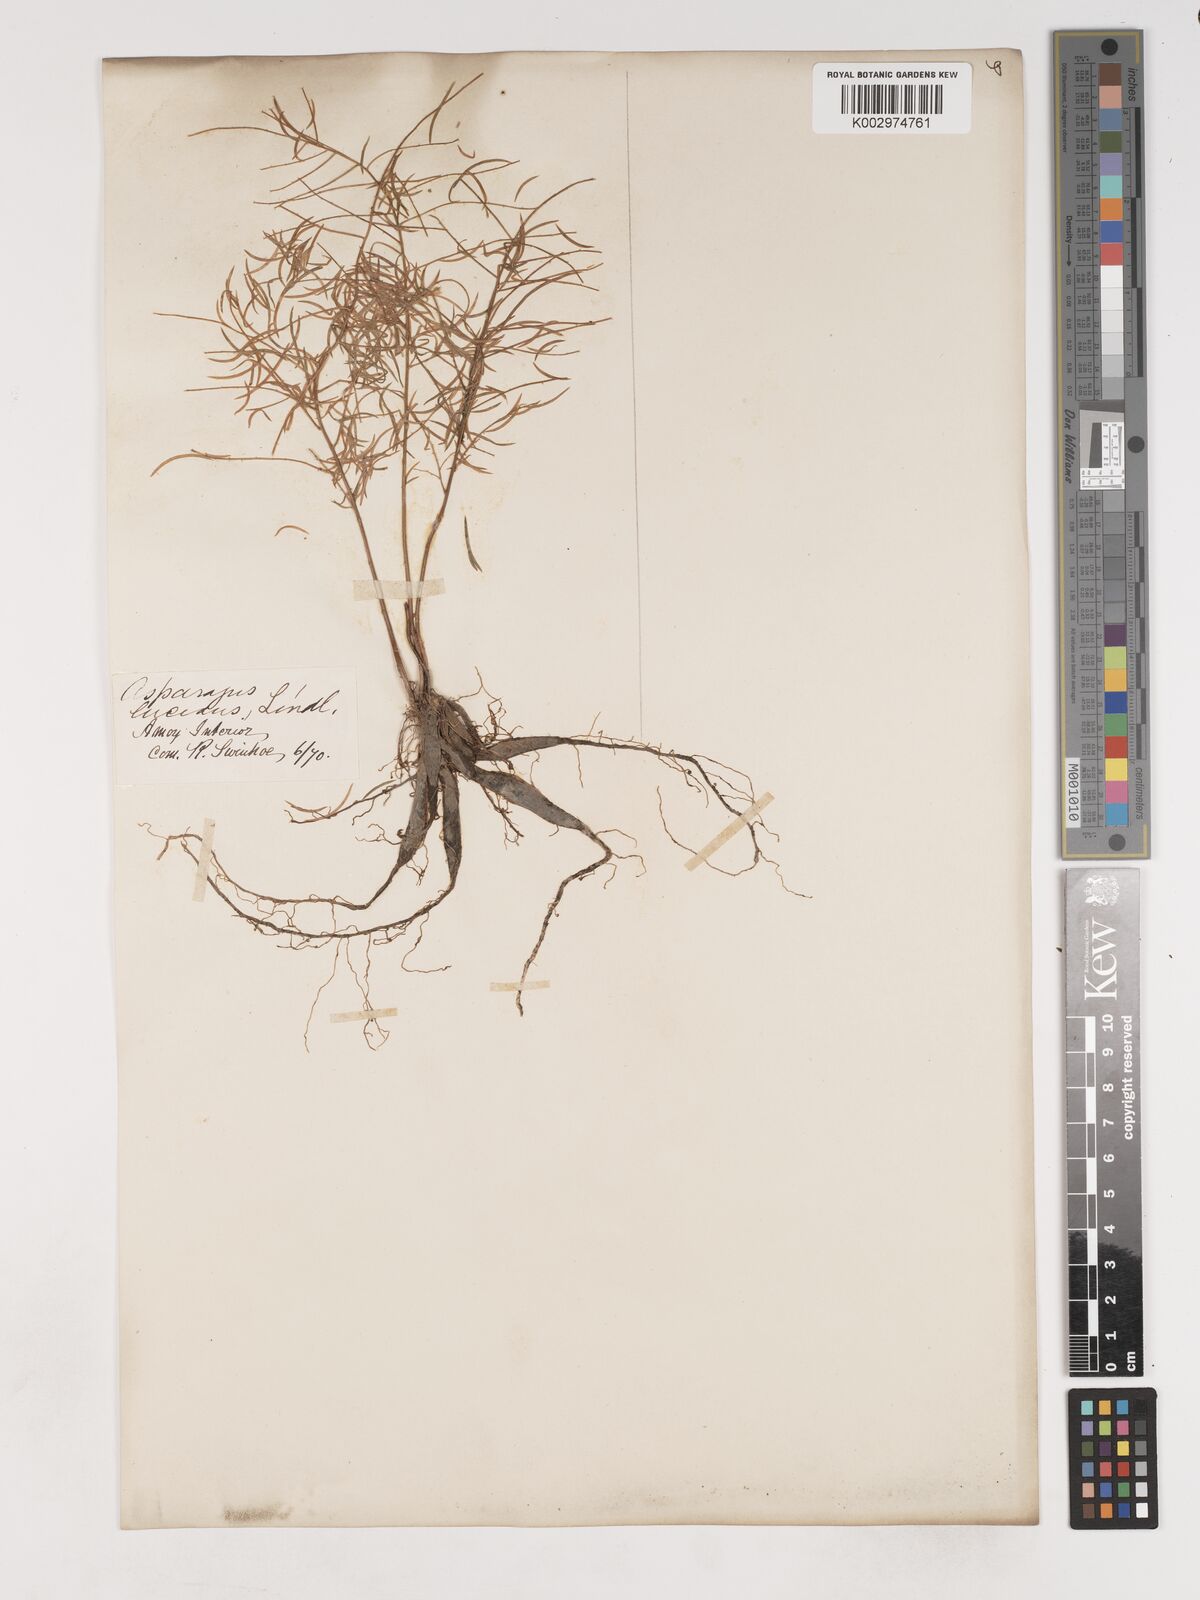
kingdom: Plantae
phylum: Tracheophyta
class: Liliopsida
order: Asparagales
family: Asparagaceae
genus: Asparagus
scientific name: Asparagus cochinchinensis
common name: Chinese asparagus
